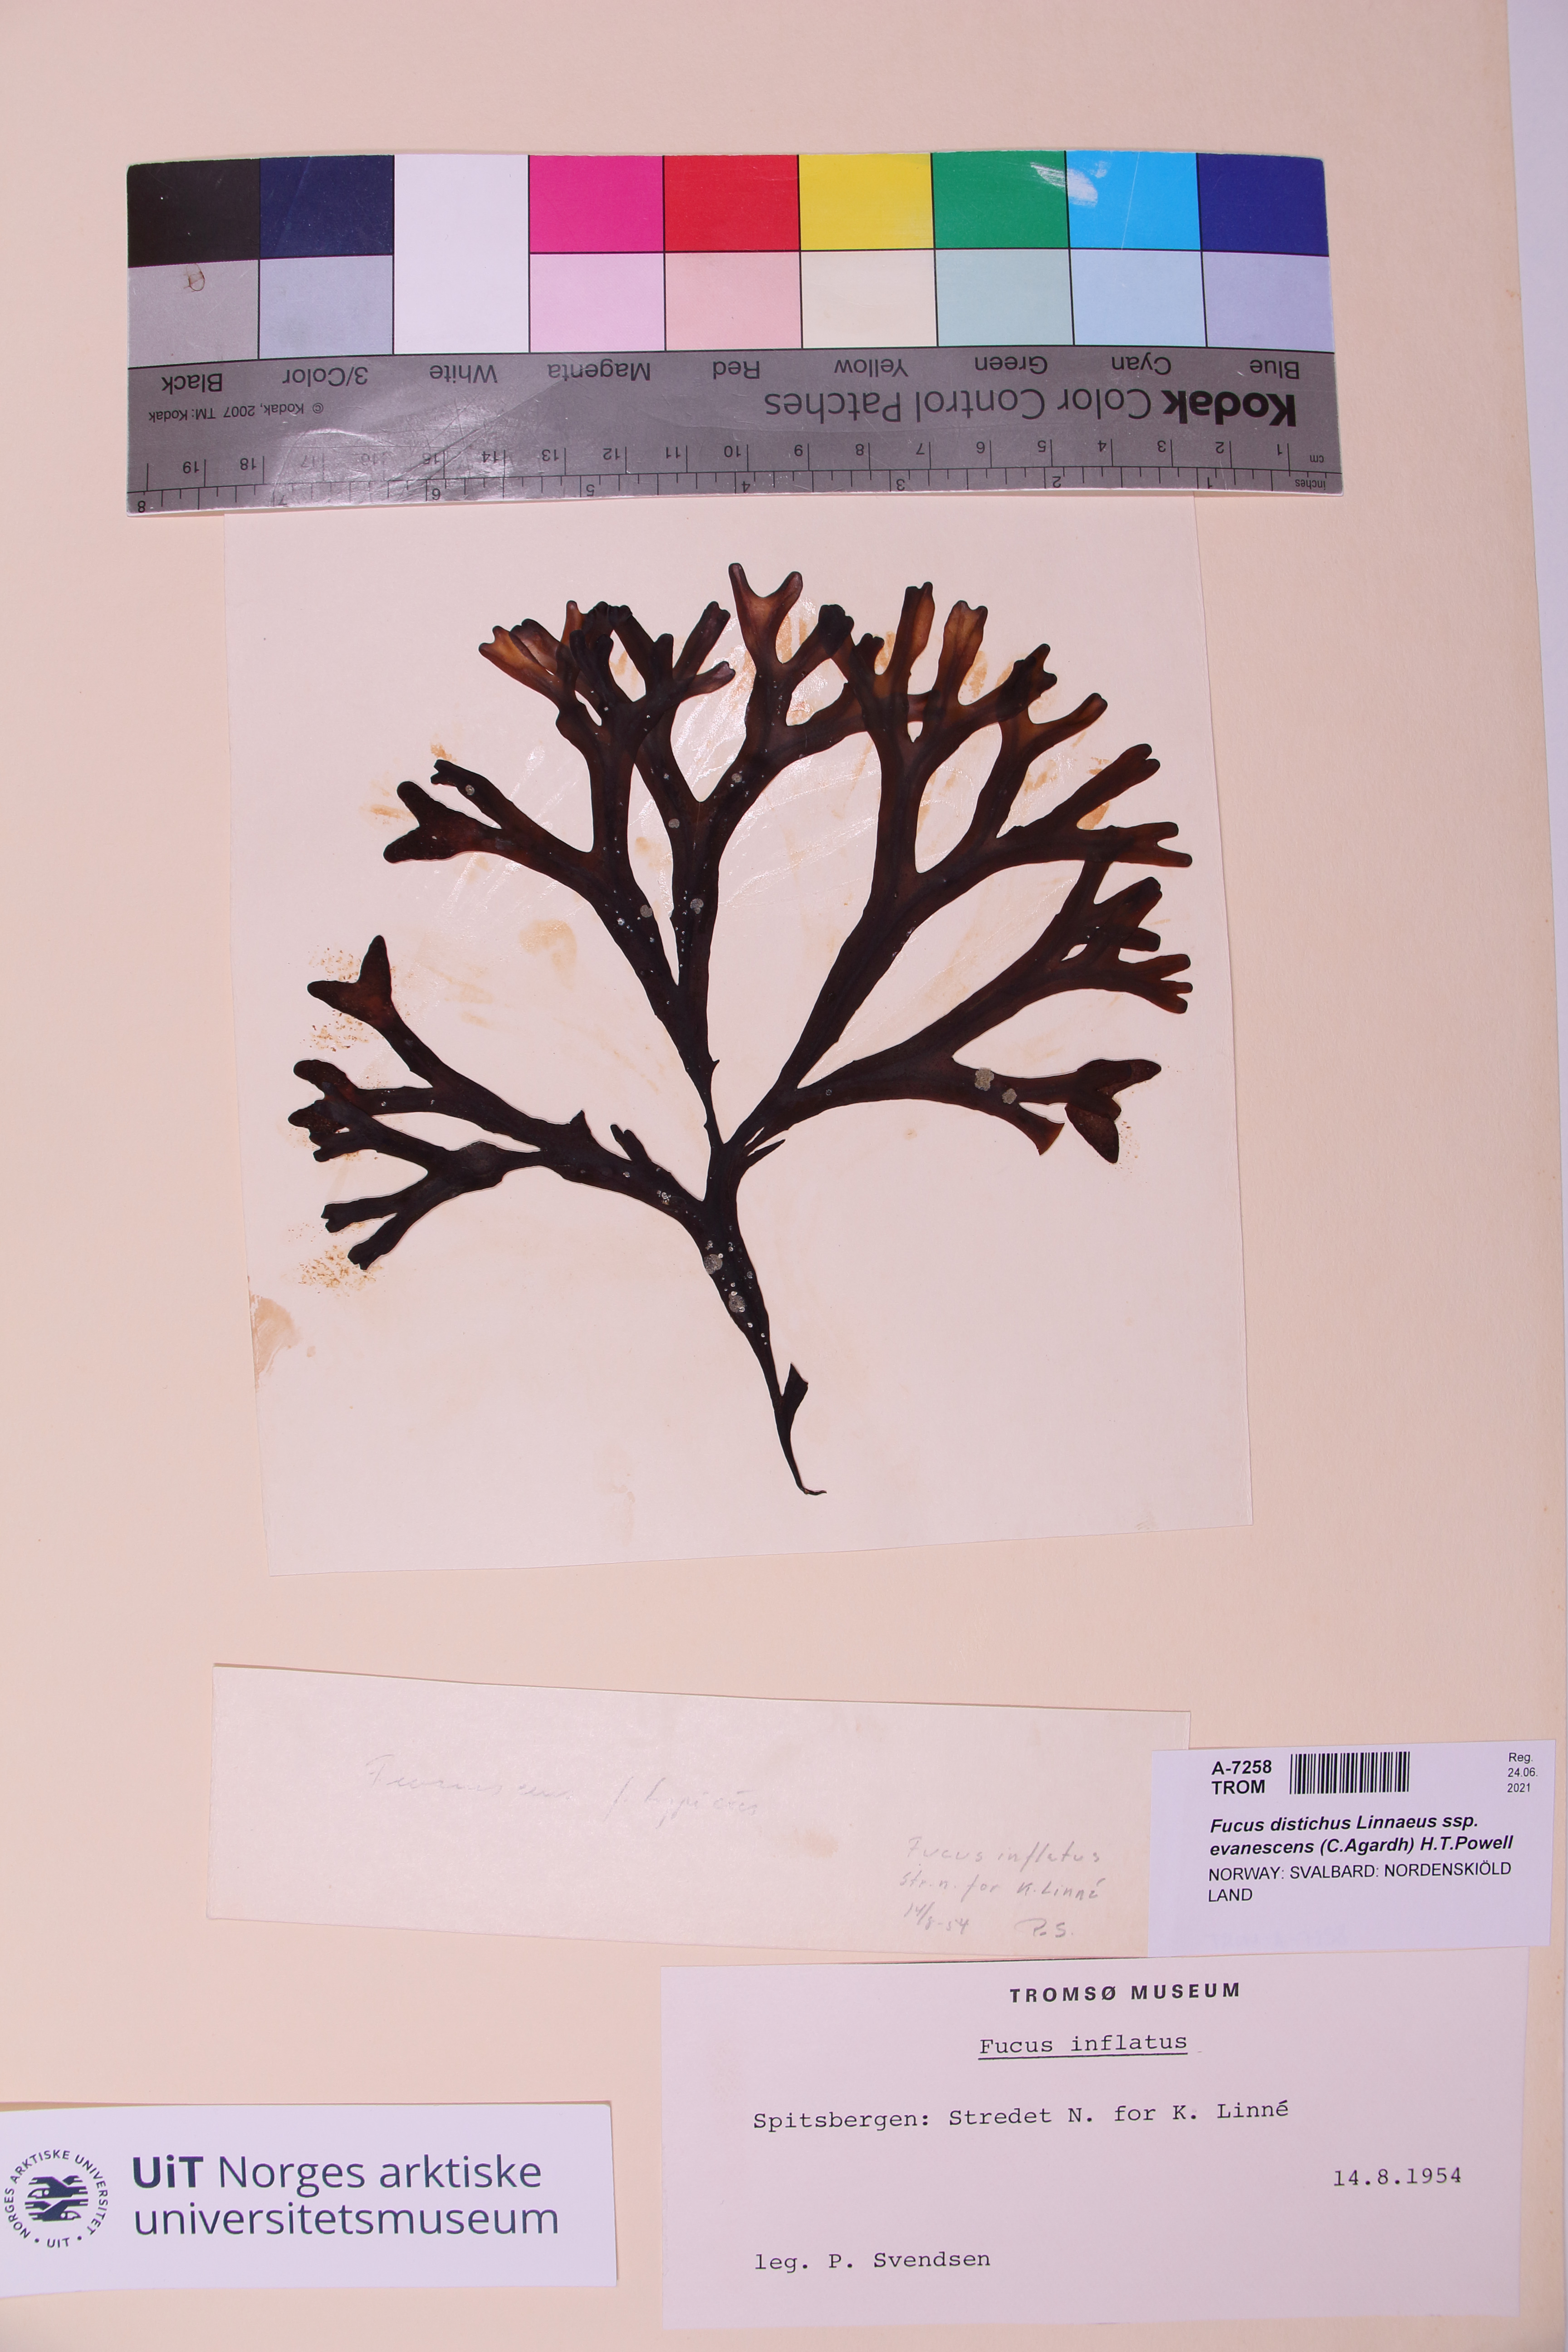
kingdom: Chromista
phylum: Ochrophyta
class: Phaeophyceae
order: Fucales
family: Fucaceae
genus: Fucus
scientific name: Fucus evanescens
